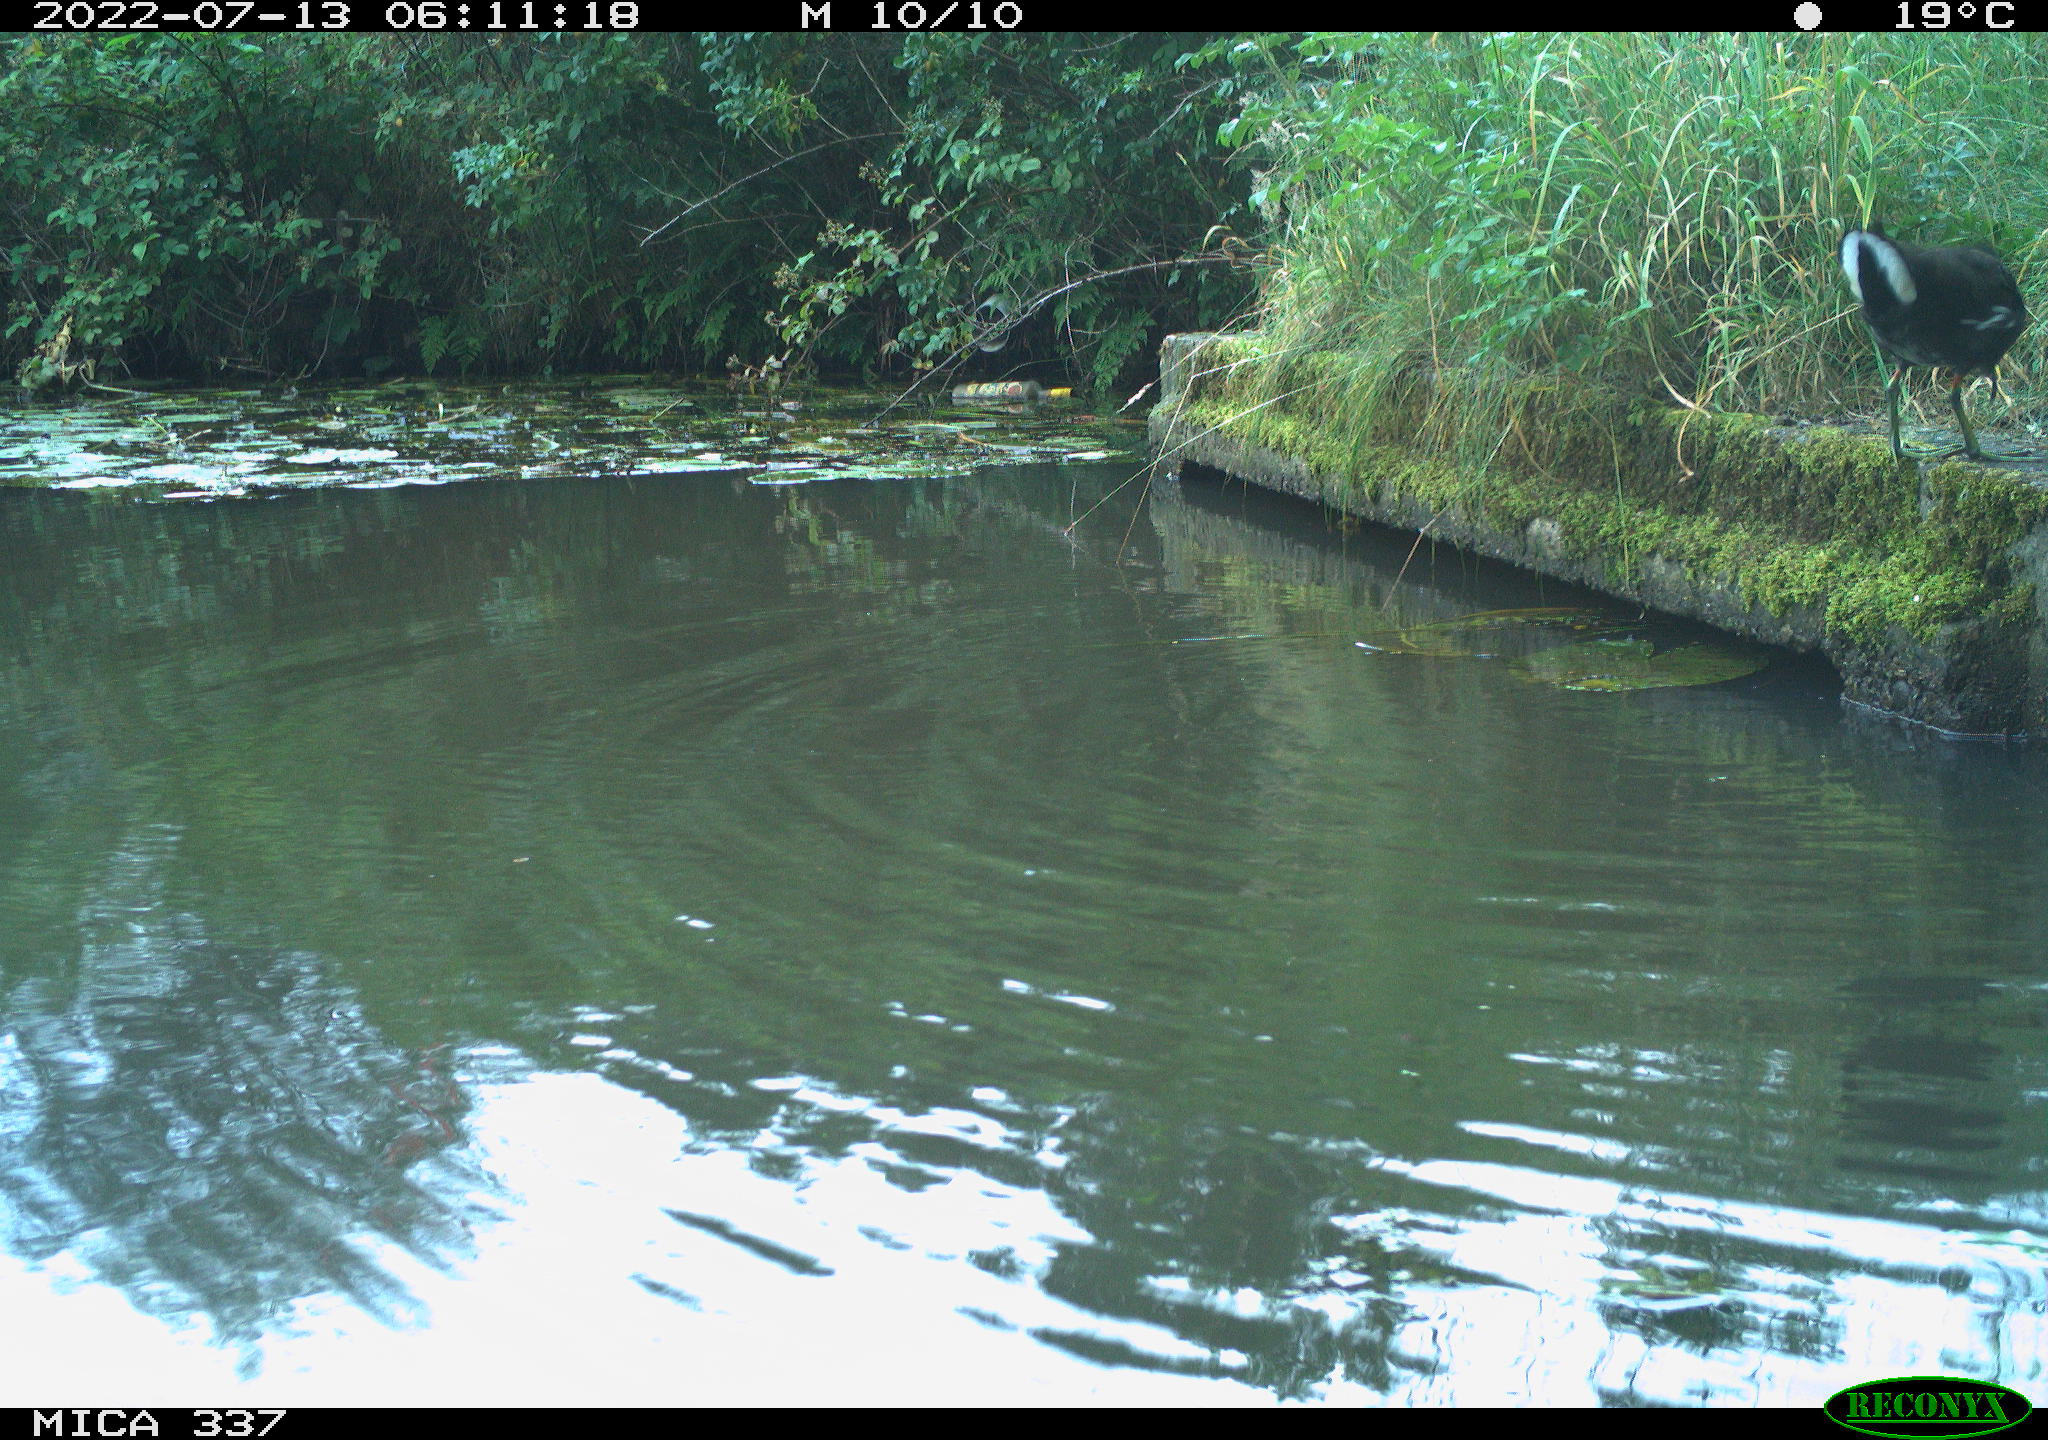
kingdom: Animalia
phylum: Chordata
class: Aves
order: Gruiformes
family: Rallidae
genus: Gallinula
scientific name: Gallinula chloropus
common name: Common moorhen
